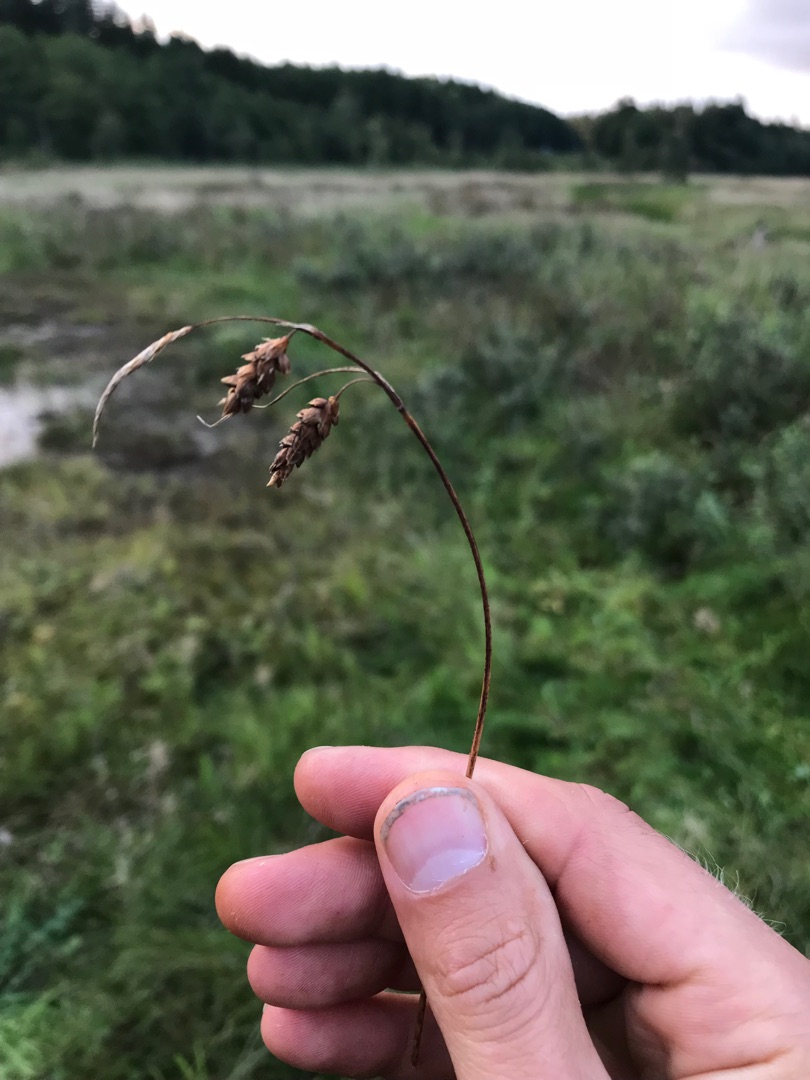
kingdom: Plantae
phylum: Tracheophyta
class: Liliopsida
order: Poales
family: Cyperaceae
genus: Carex
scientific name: Carex limosa
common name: Dynd-star
